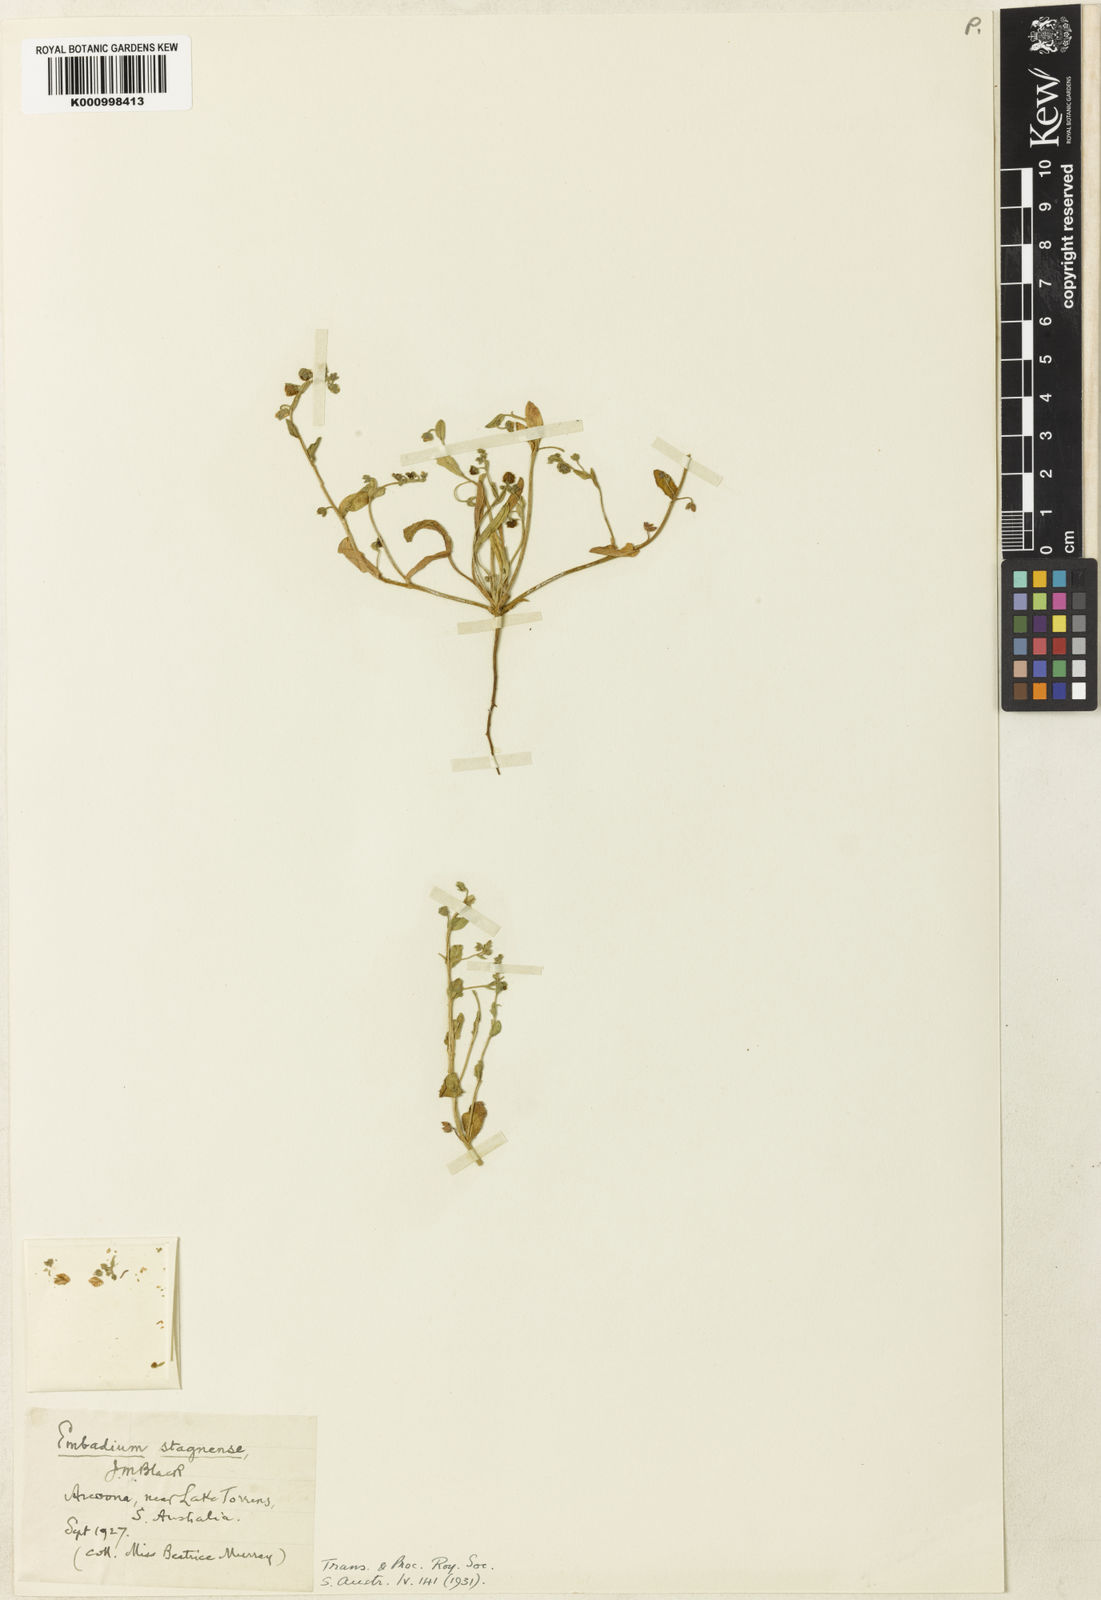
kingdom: Plantae
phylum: Tracheophyta
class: Magnoliopsida
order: Boraginales
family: Boraginaceae
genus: Embadium
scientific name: Embadium
